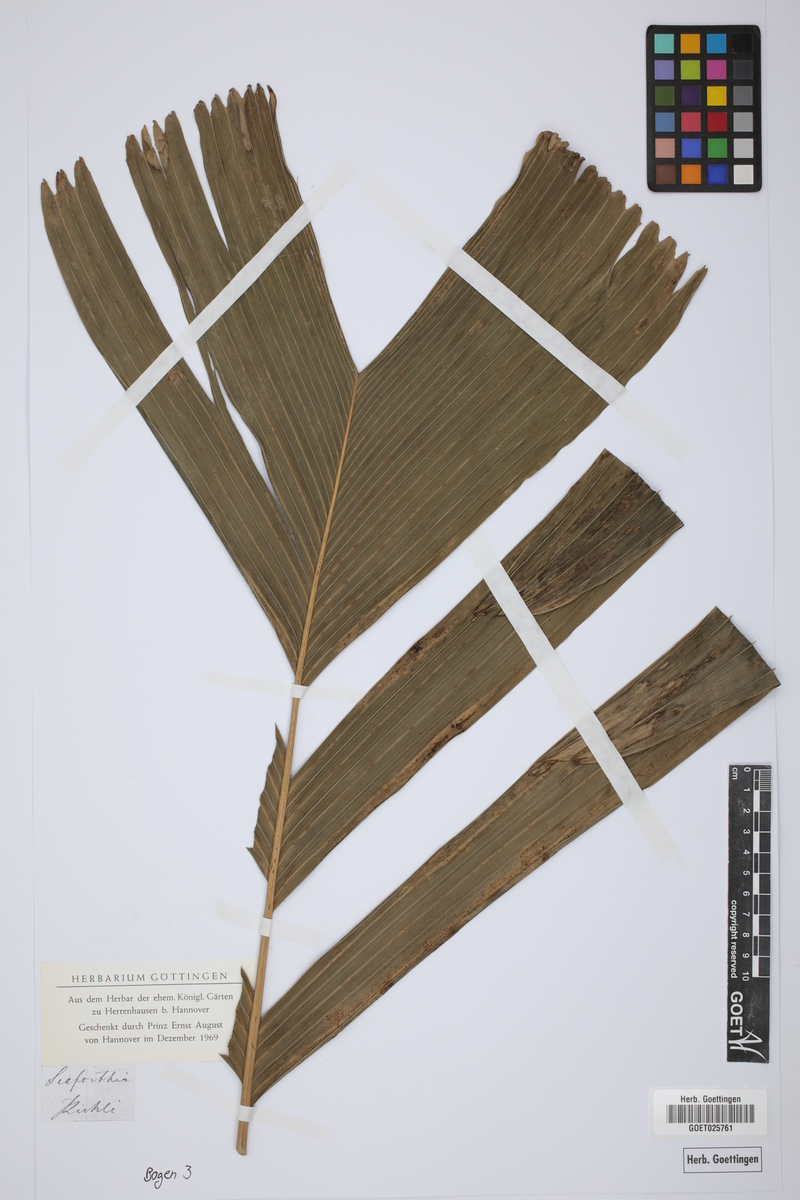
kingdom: Plantae
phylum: Tracheophyta
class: Liliopsida
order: Arecales
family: Arecaceae
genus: Pinanga
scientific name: Pinanga coronata
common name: Ivory cane palm
